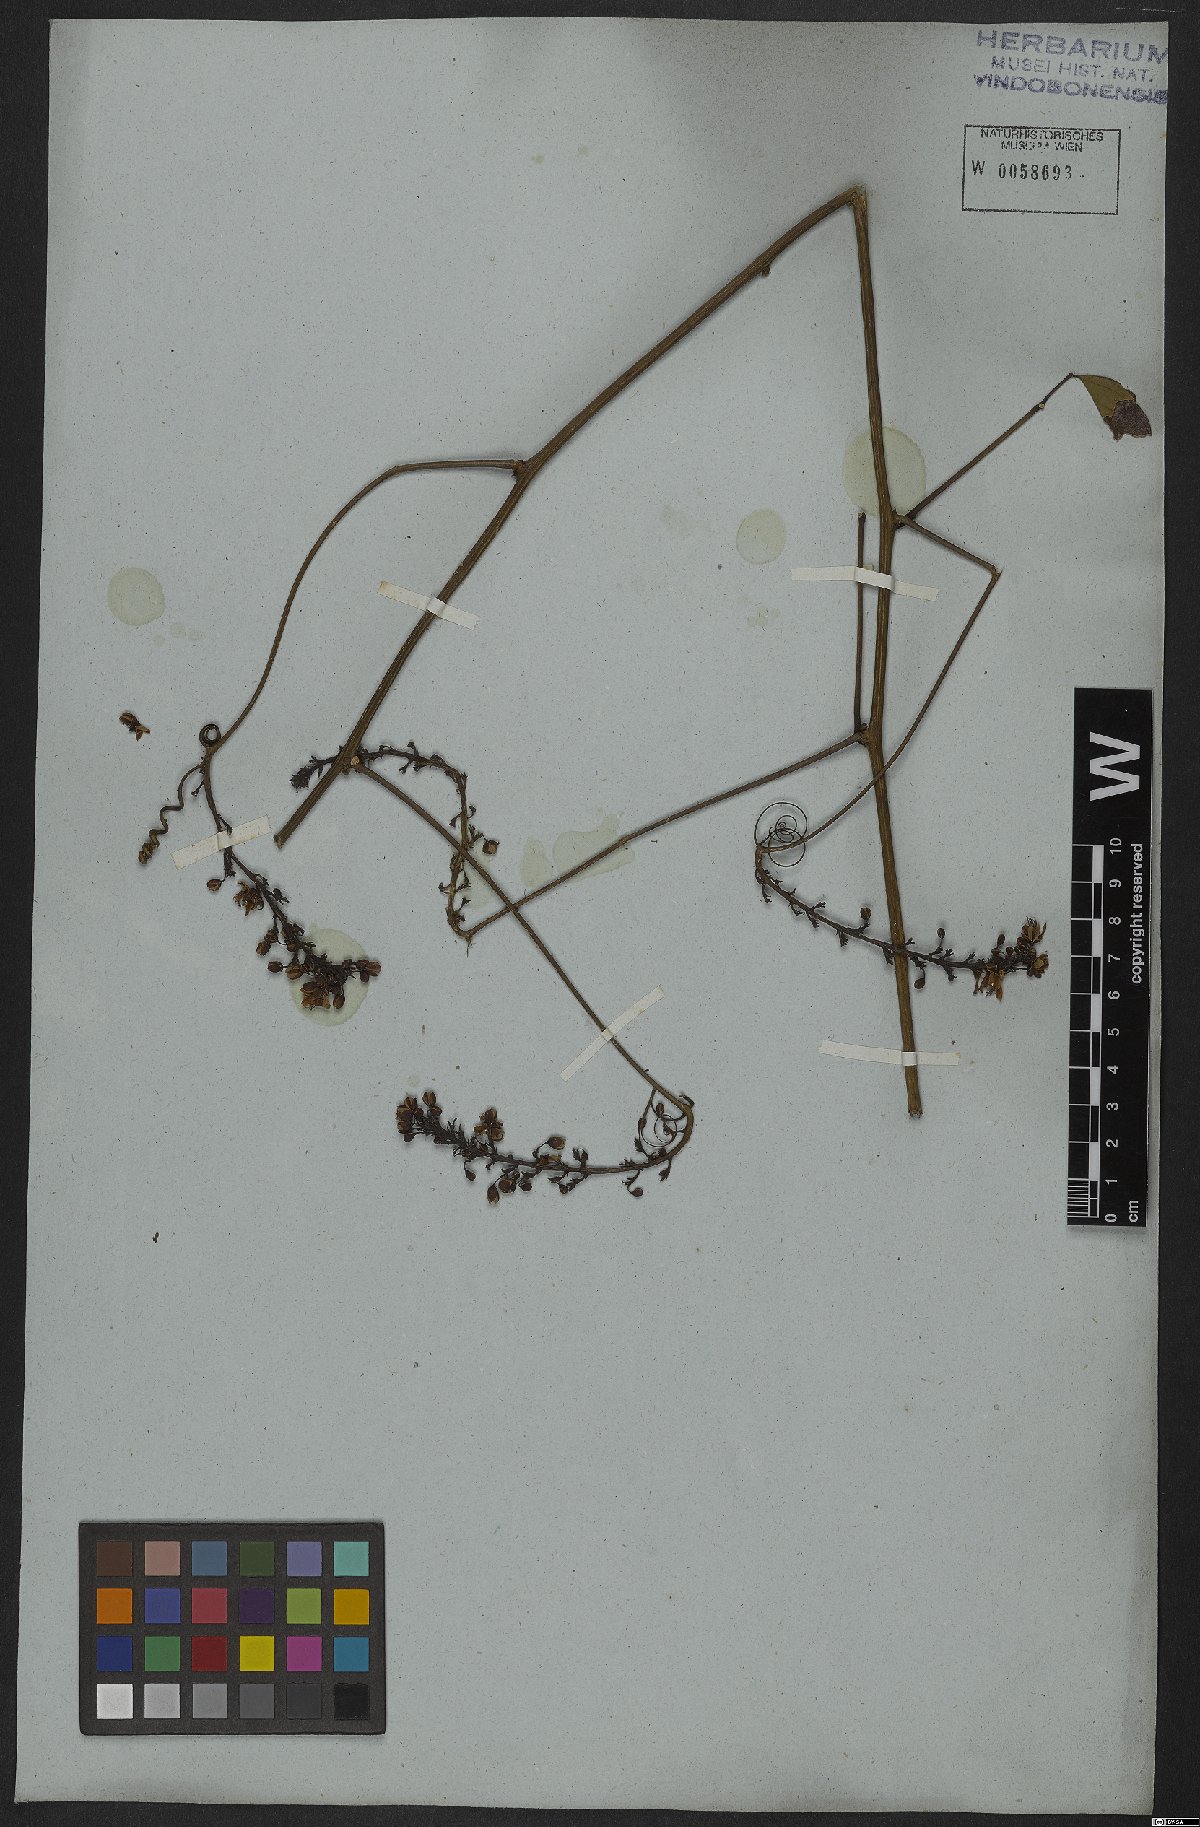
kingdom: Plantae
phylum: Tracheophyta
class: Magnoliopsida
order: Sapindales
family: Sapindaceae
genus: Serjania
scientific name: Serjania caracasana
